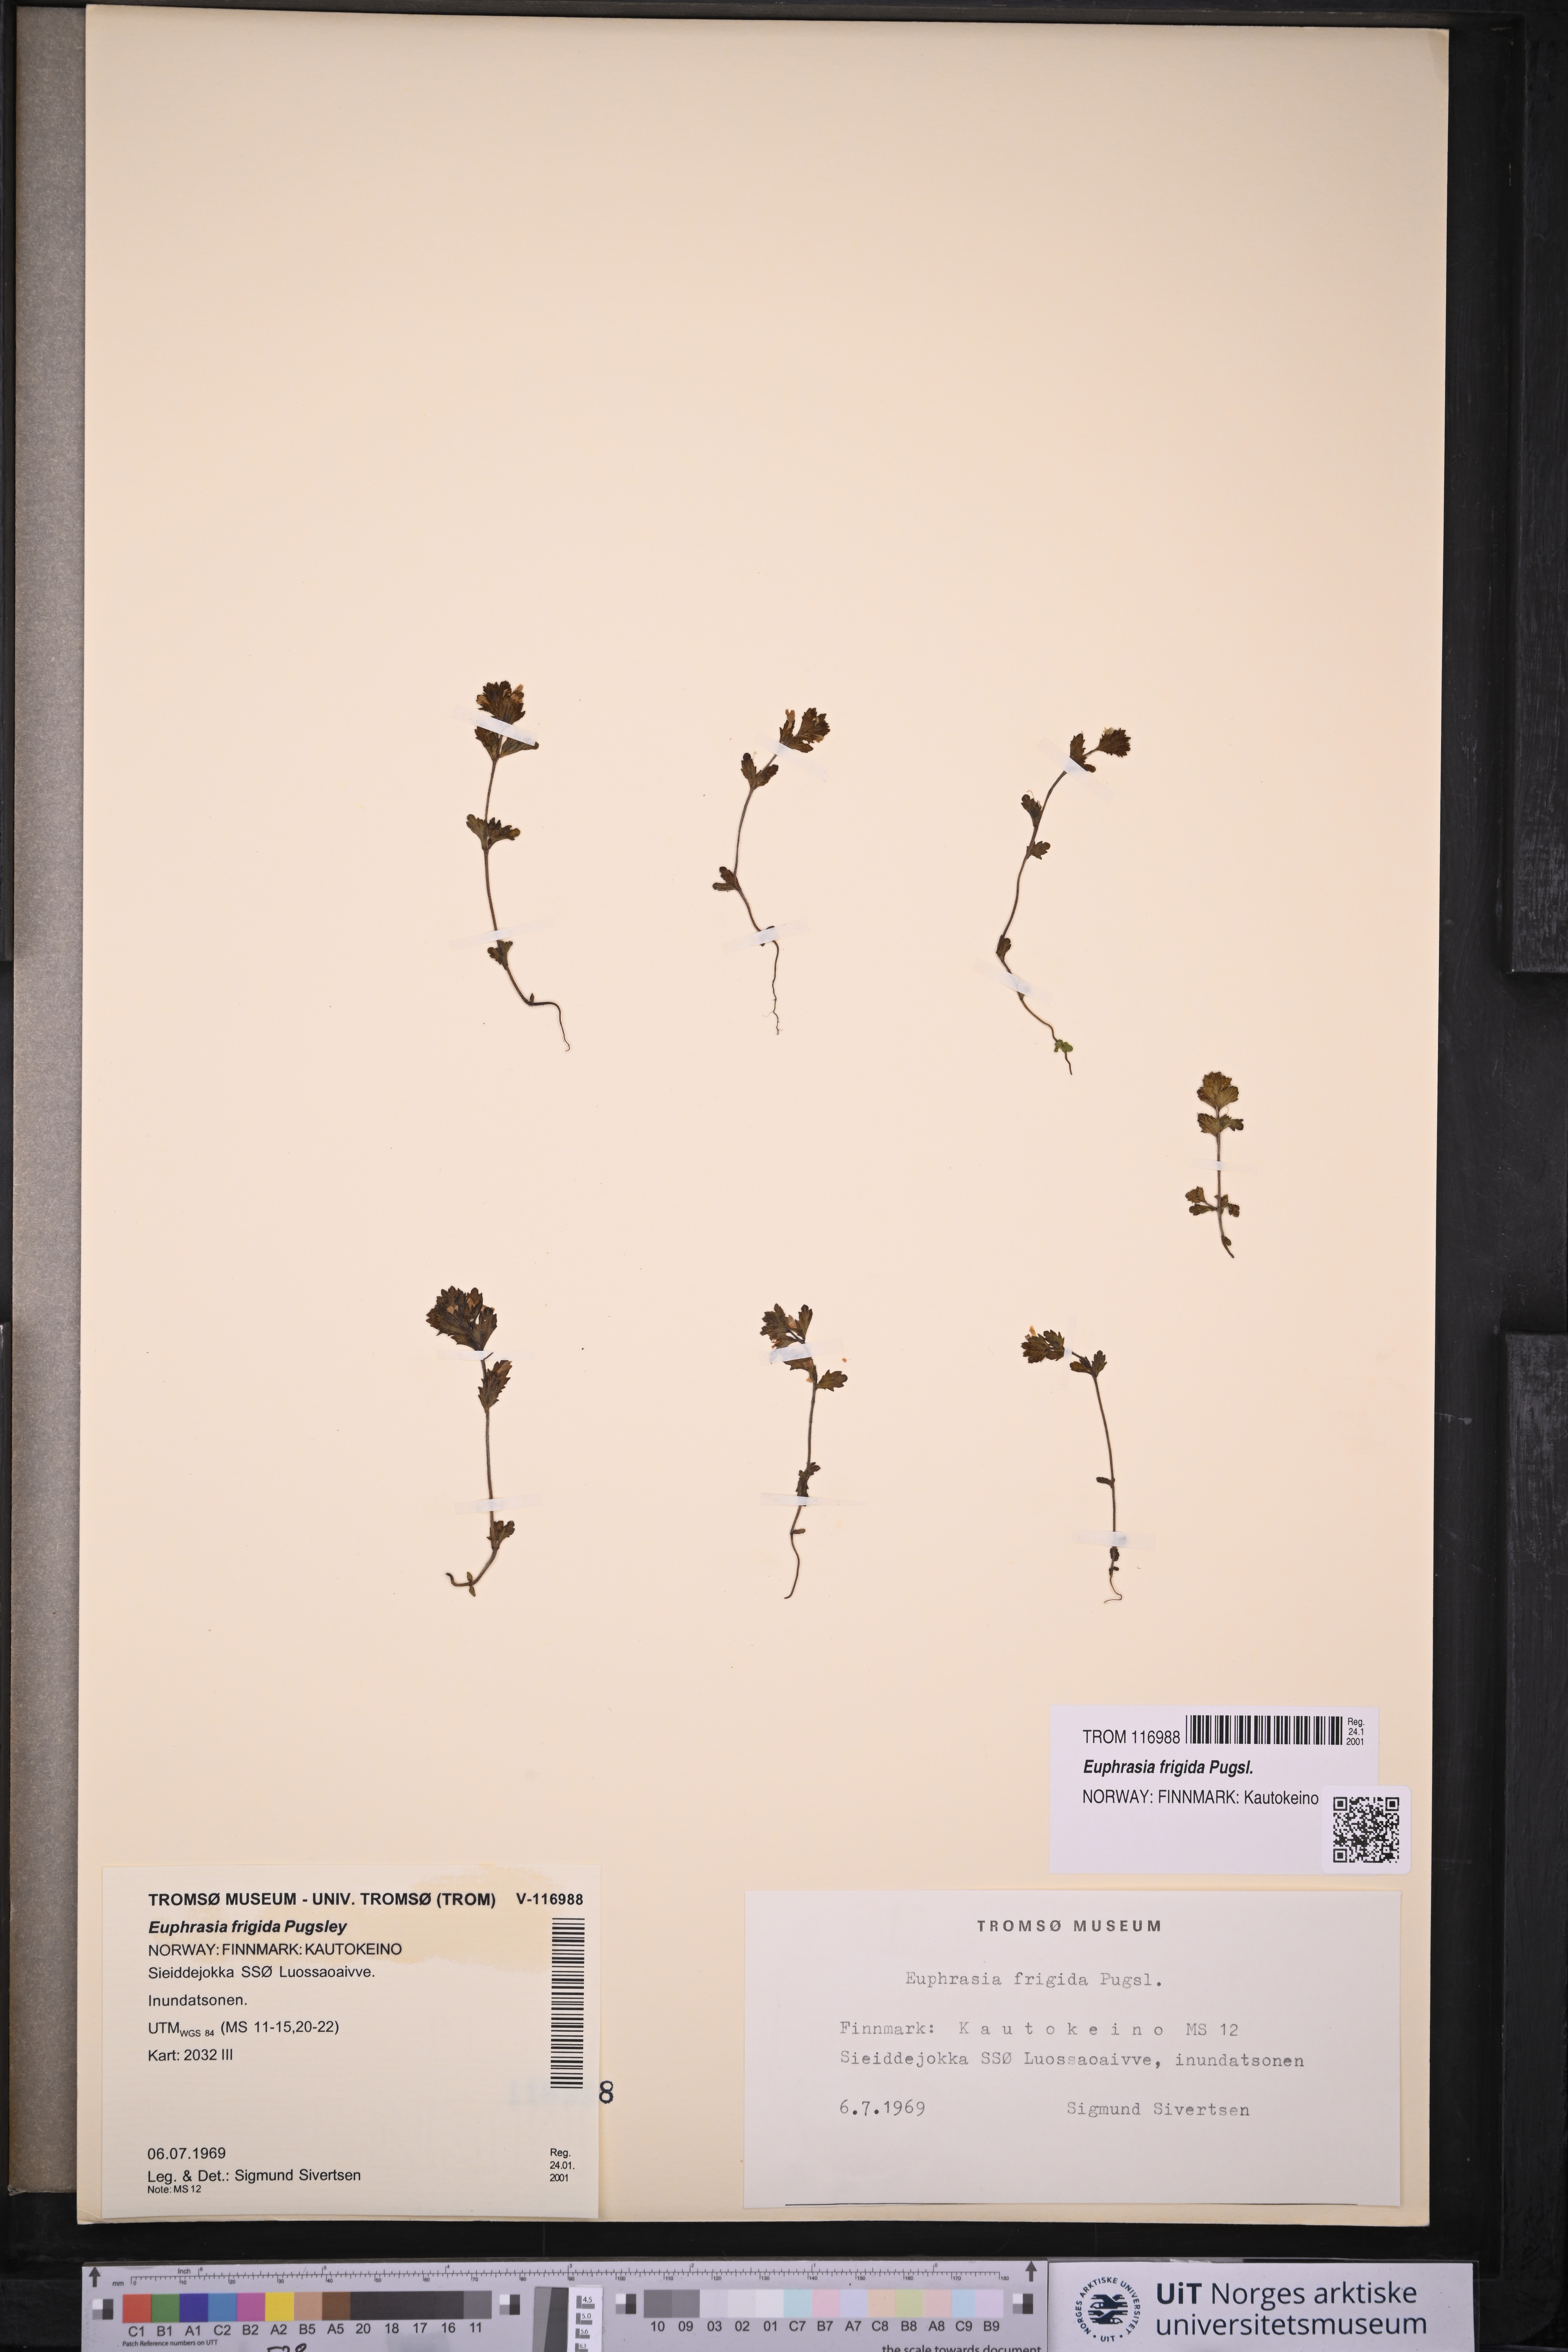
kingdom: Plantae
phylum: Tracheophyta
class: Magnoliopsida
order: Lamiales
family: Orobanchaceae
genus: Euphrasia
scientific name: Euphrasia frigida
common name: An eyebright
